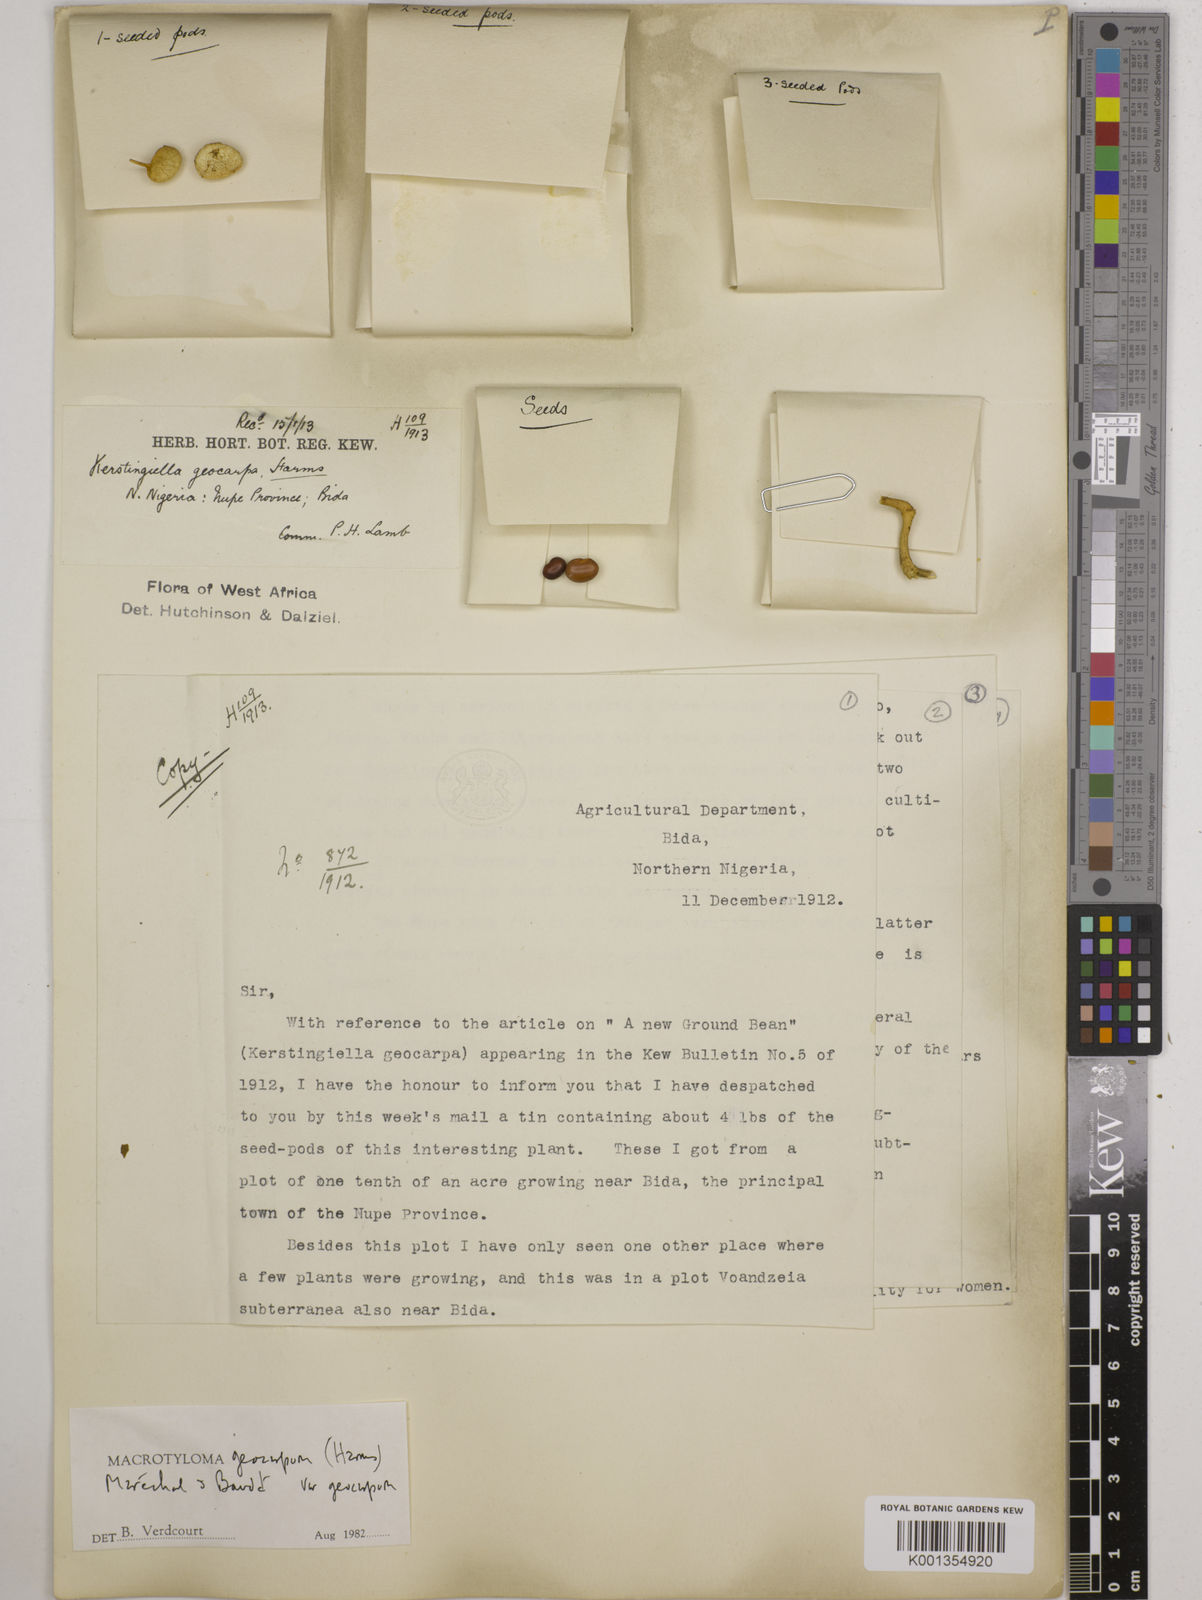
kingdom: Plantae
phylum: Tracheophyta
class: Magnoliopsida
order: Fabales
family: Fabaceae
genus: Macrotyloma
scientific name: Macrotyloma geocarpum
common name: Ground-bean
